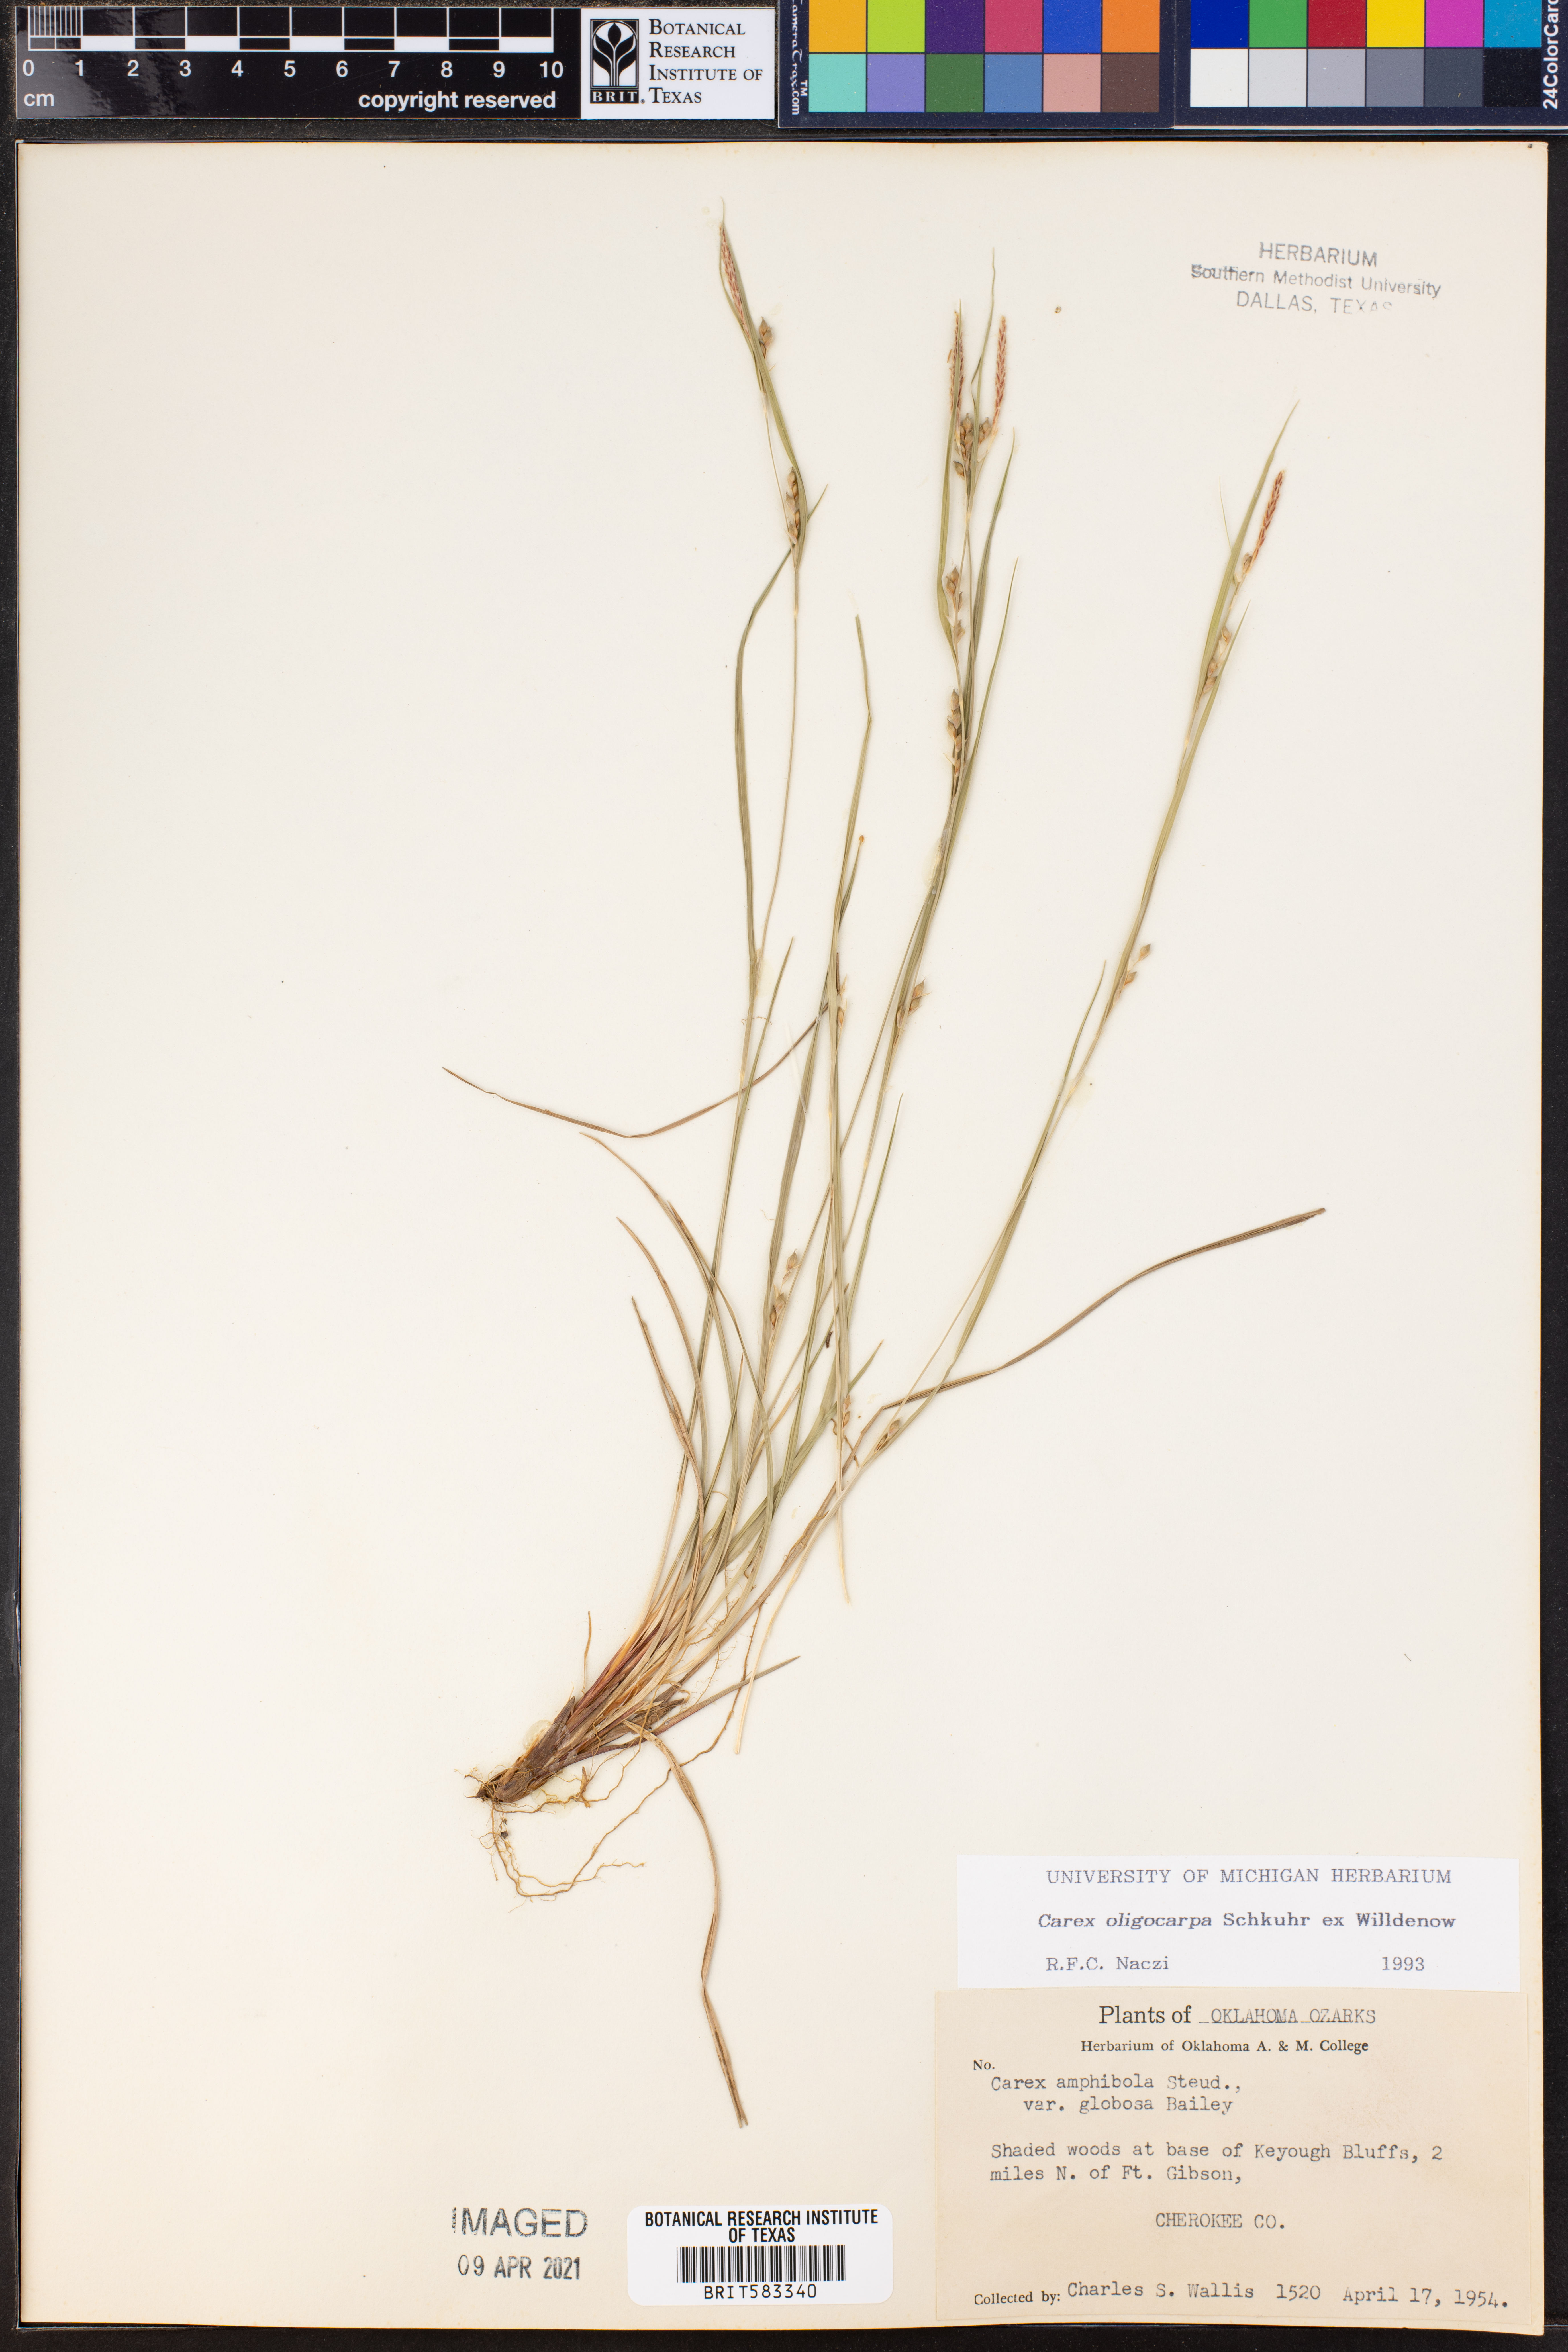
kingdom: Plantae
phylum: Tracheophyta
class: Liliopsida
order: Poales
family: Cyperaceae
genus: Carex
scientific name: Carex oligocarpa
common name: Eastern few-fruited sedge
